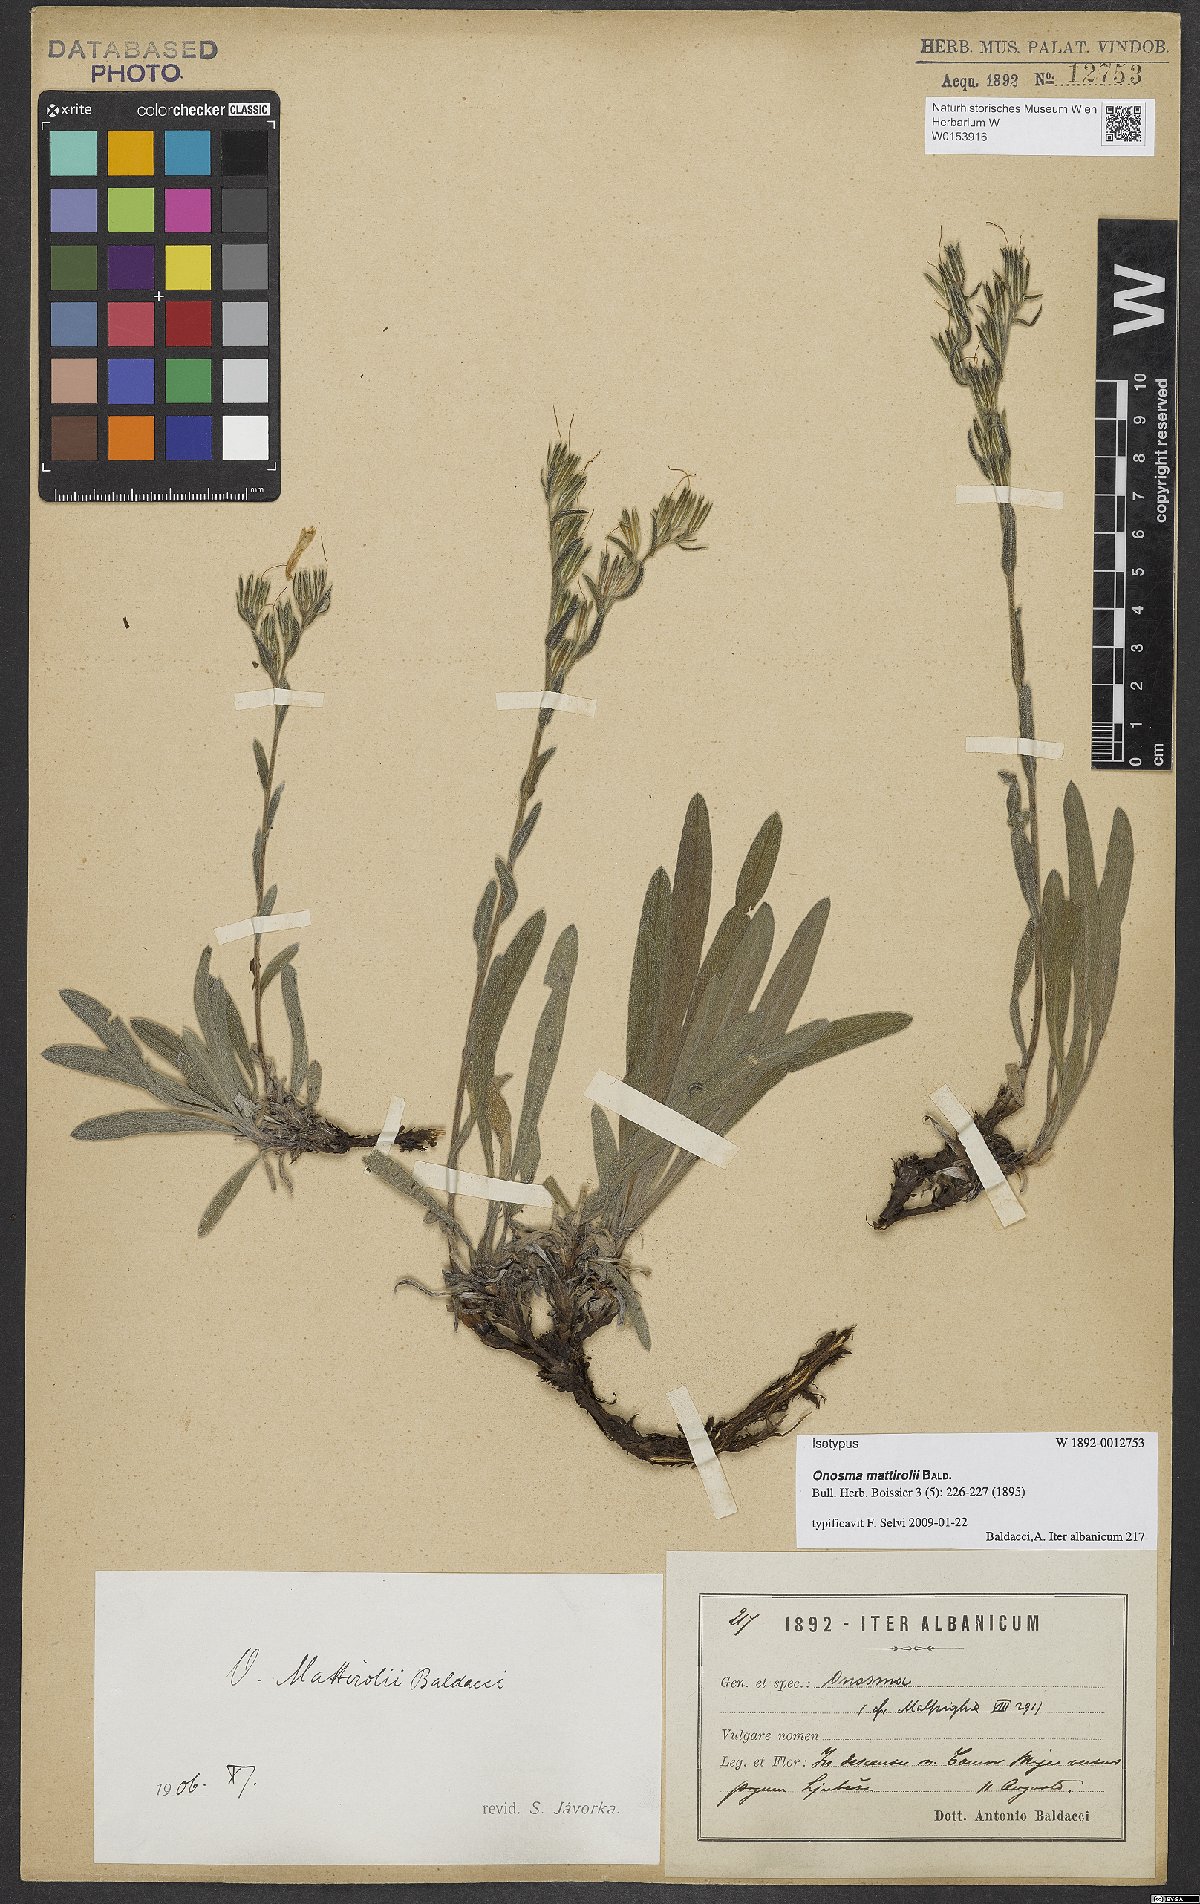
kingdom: Plantae
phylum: Tracheophyta
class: Magnoliopsida
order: Boraginales
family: Boraginaceae
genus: Onosma
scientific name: Onosma mattirolii
